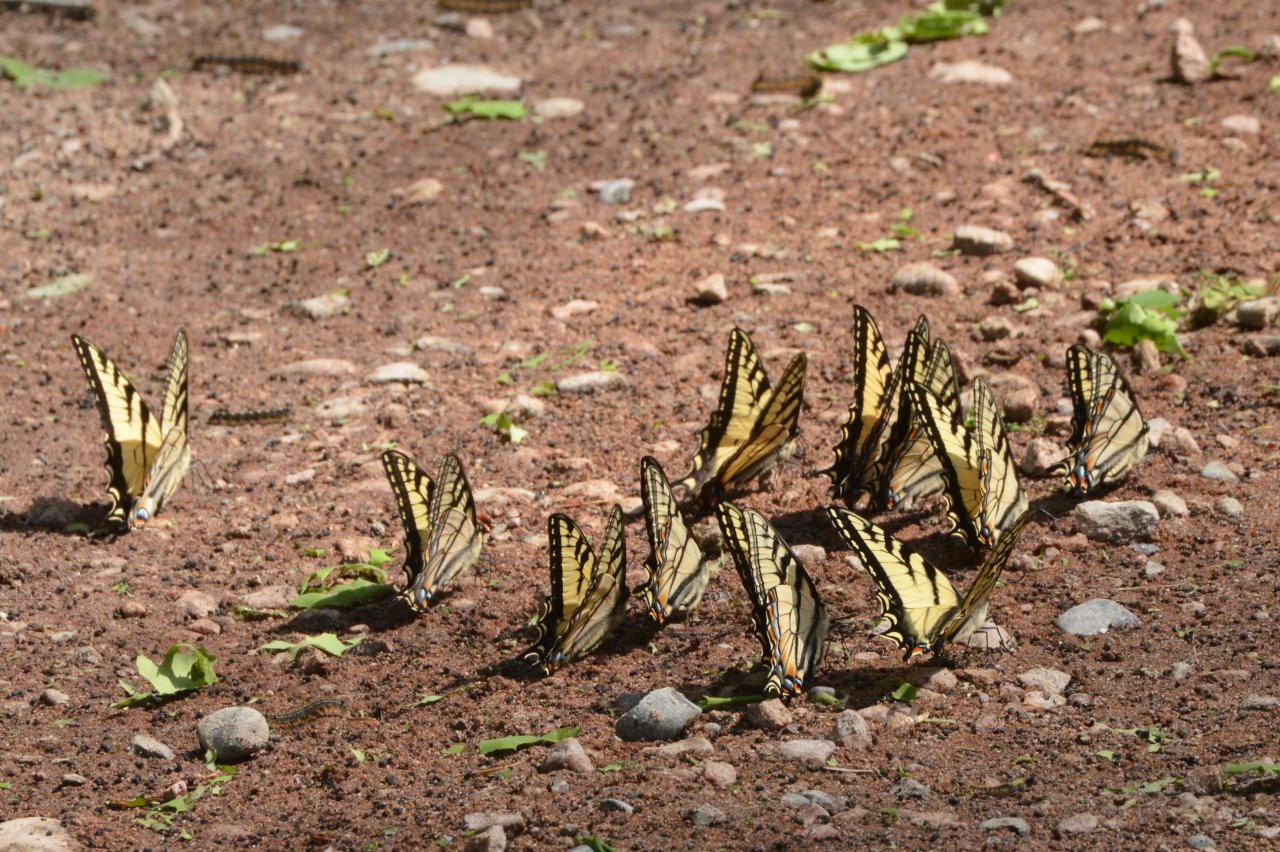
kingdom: Animalia
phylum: Arthropoda
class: Insecta
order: Lepidoptera
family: Papilionidae
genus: Pterourus
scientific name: Pterourus canadensis
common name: Canadian Tiger Swallowtail
